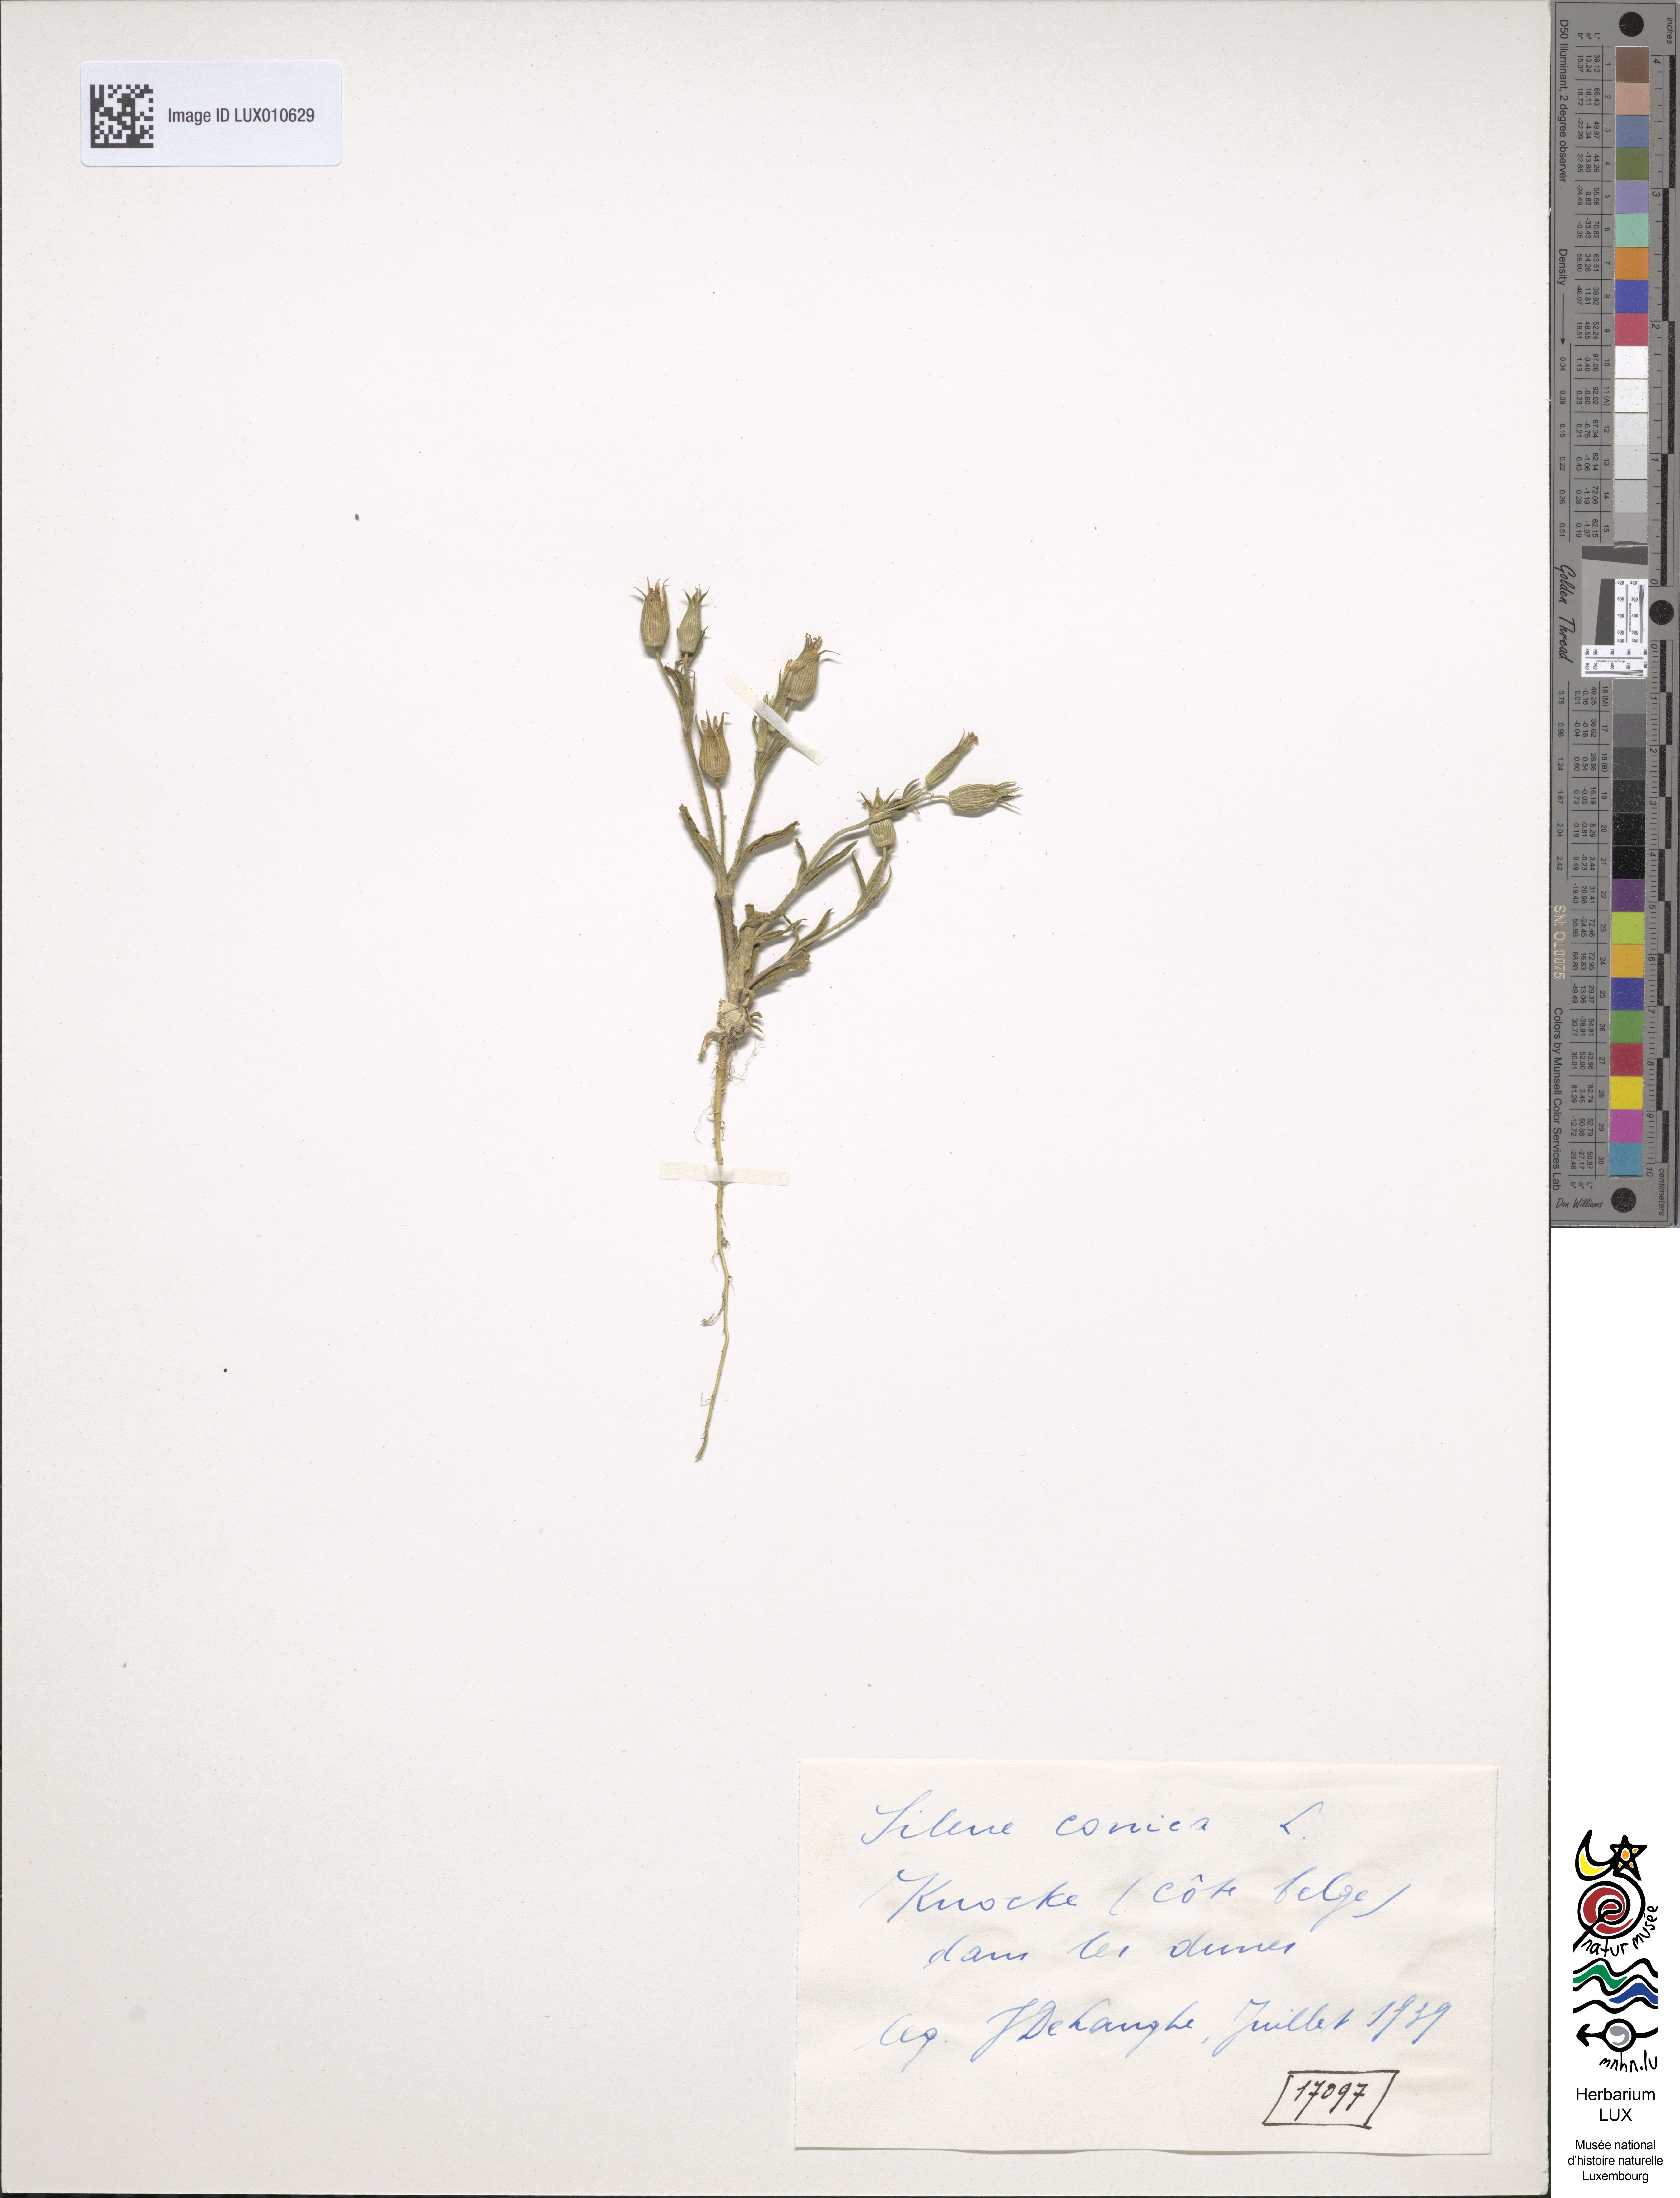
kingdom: Plantae
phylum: Tracheophyta
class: Magnoliopsida
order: Caryophyllales
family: Caryophyllaceae
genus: Silene
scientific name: Silene conica
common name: Sand catchfly
